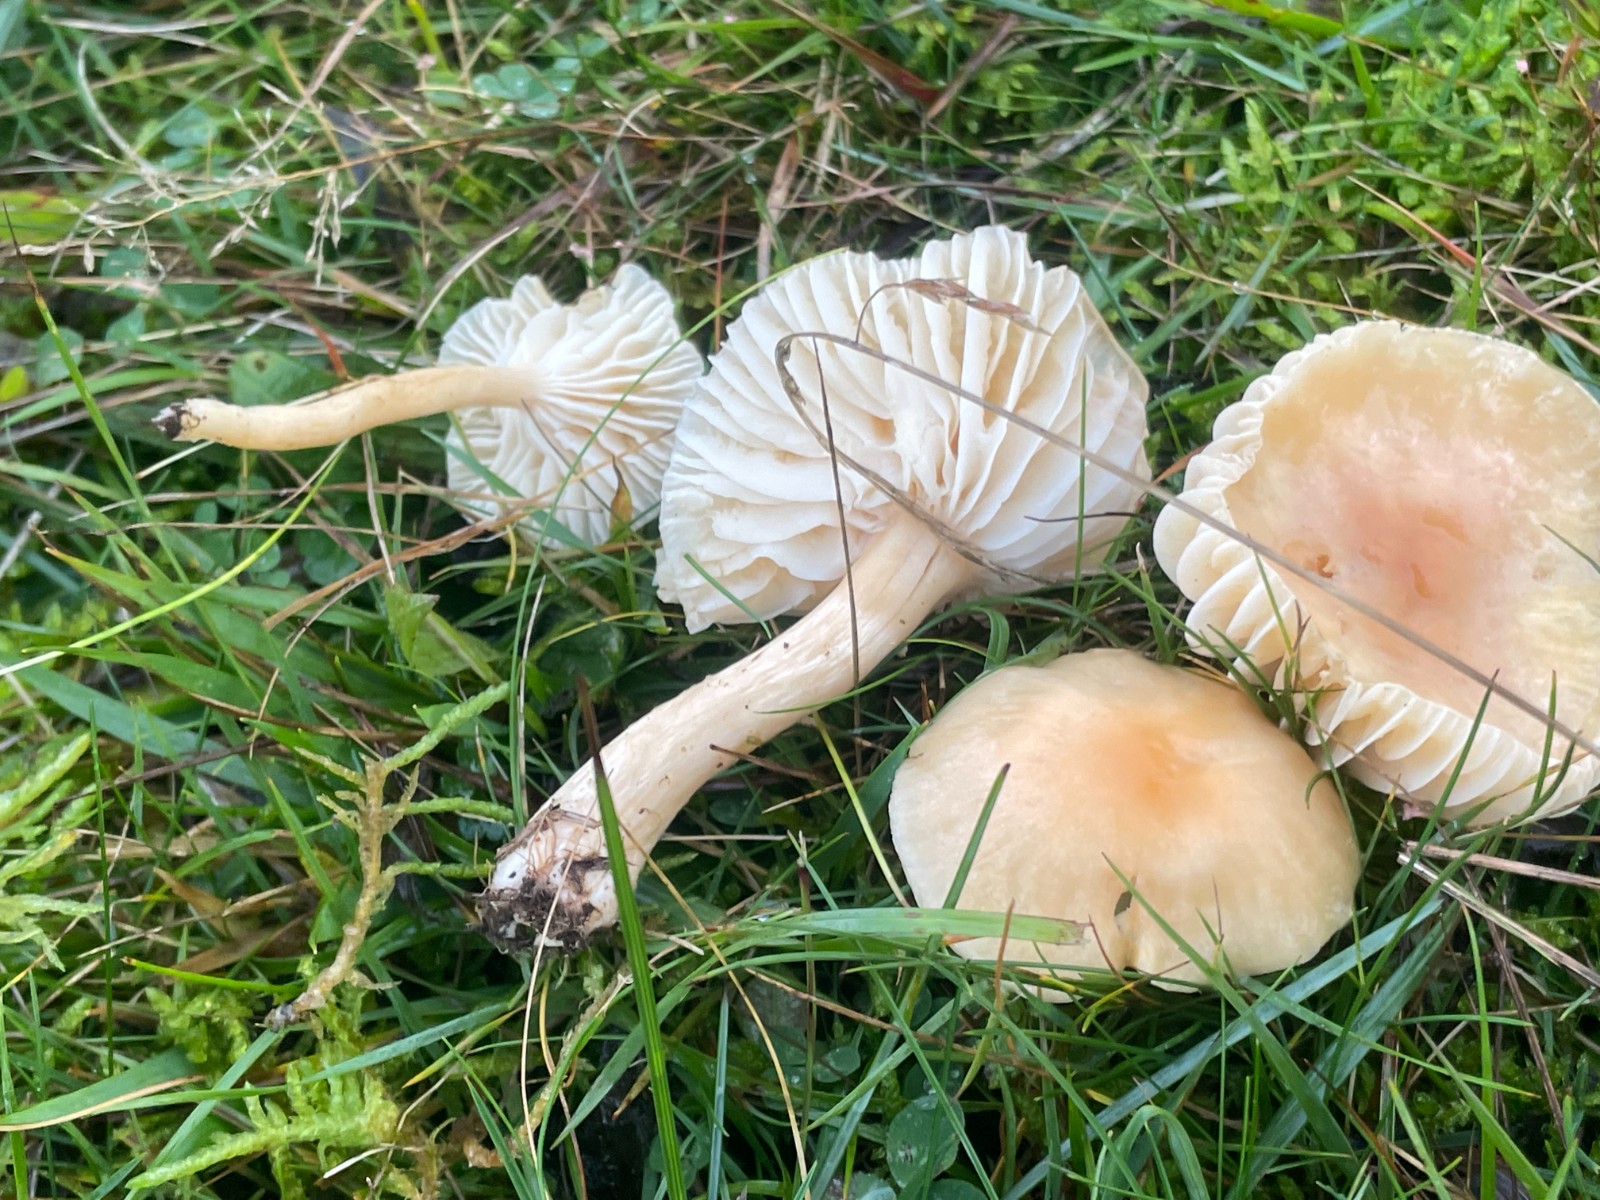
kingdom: Fungi
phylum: Basidiomycota
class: Agaricomycetes
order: Agaricales
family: Hygrophoraceae
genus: Cuphophyllus
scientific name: Cuphophyllus pratensis
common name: eng-vokshat
